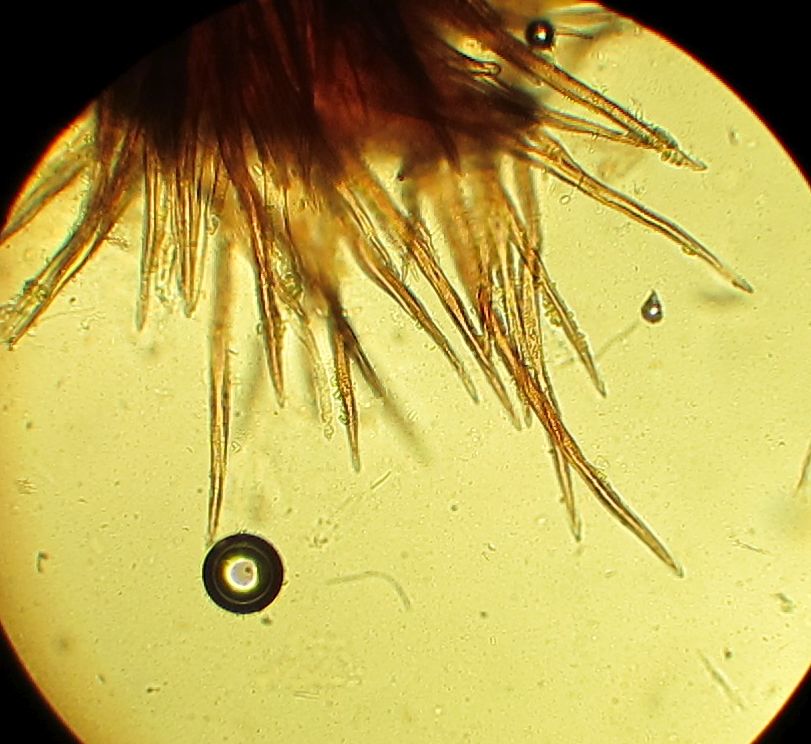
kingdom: Fungi
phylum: Ascomycota
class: Sordariomycetes
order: Sordariales
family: Helminthosphaeriaceae
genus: Echinosphaeria
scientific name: Echinosphaeria strigosa
